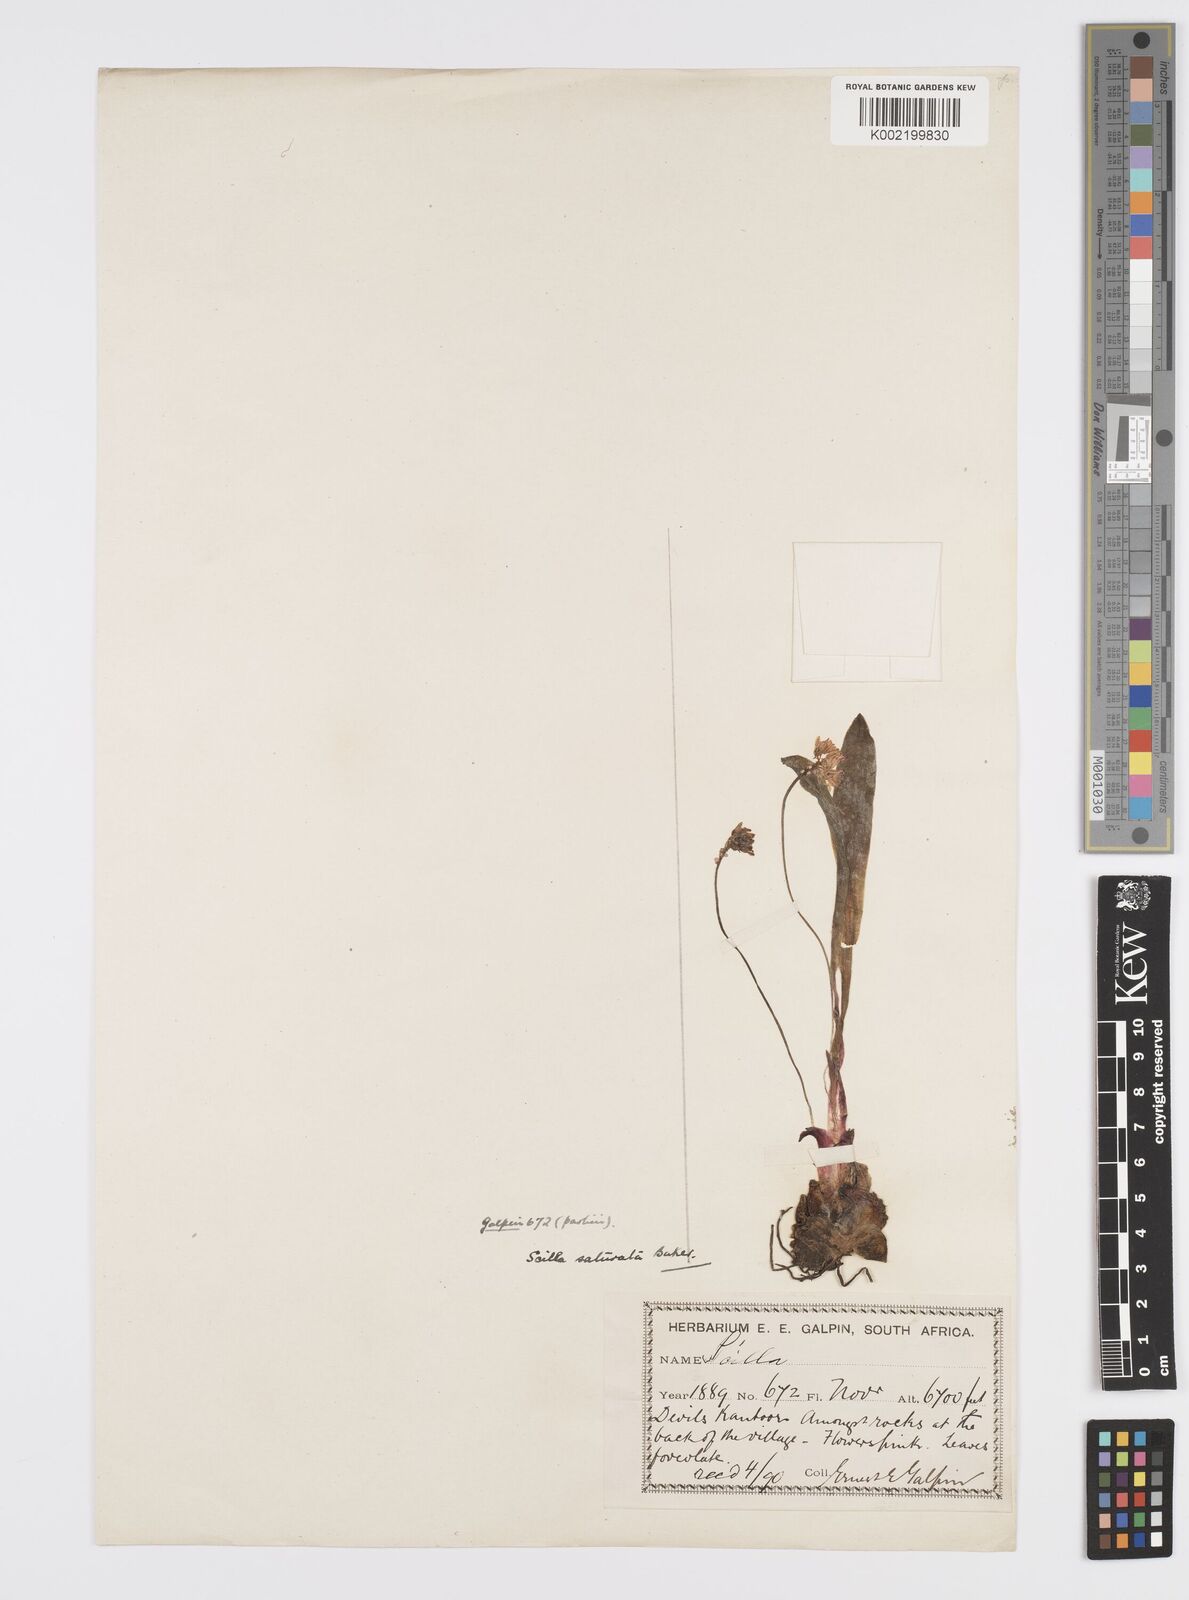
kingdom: Plantae
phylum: Tracheophyta
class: Liliopsida
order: Asparagales
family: Asparagaceae
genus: Ledebouria
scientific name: Ledebouria cooperi
